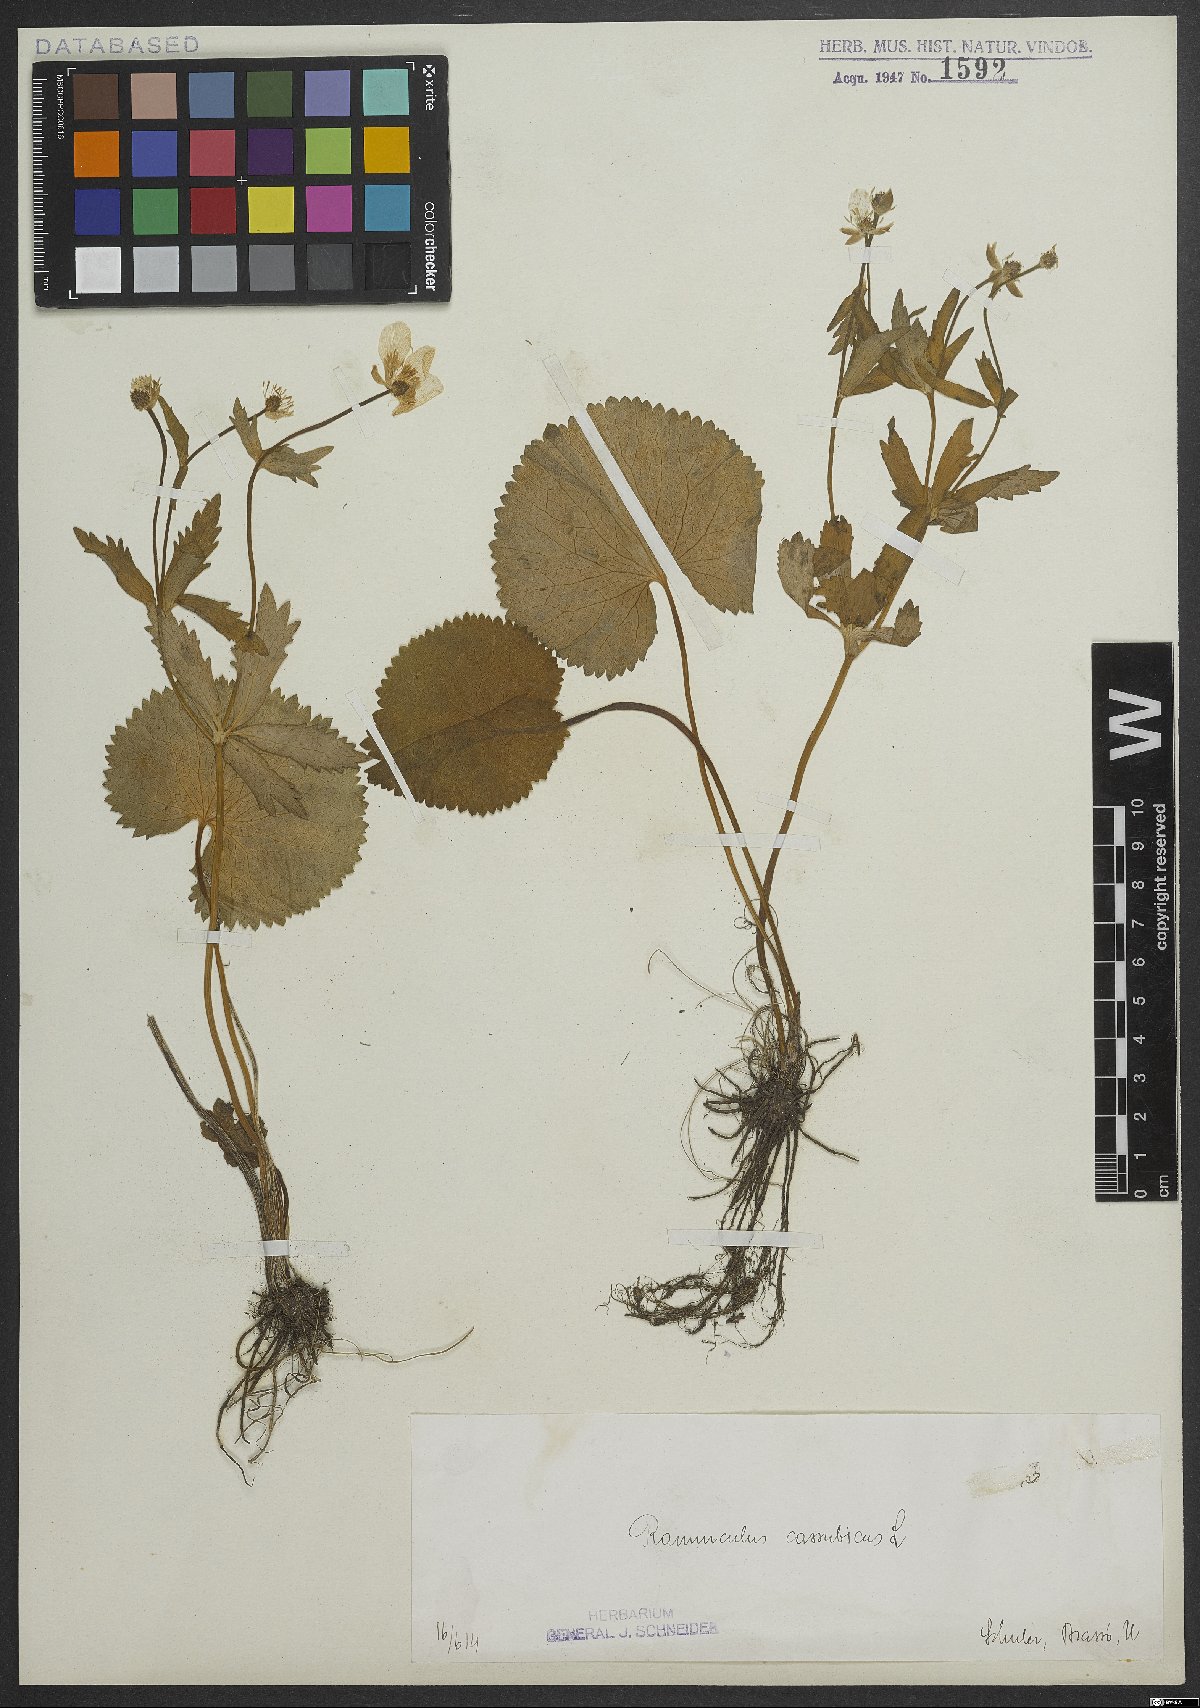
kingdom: Plantae
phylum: Tracheophyta
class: Magnoliopsida
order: Ranunculales
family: Ranunculaceae
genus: Ranunculus
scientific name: Ranunculus cassubicus
